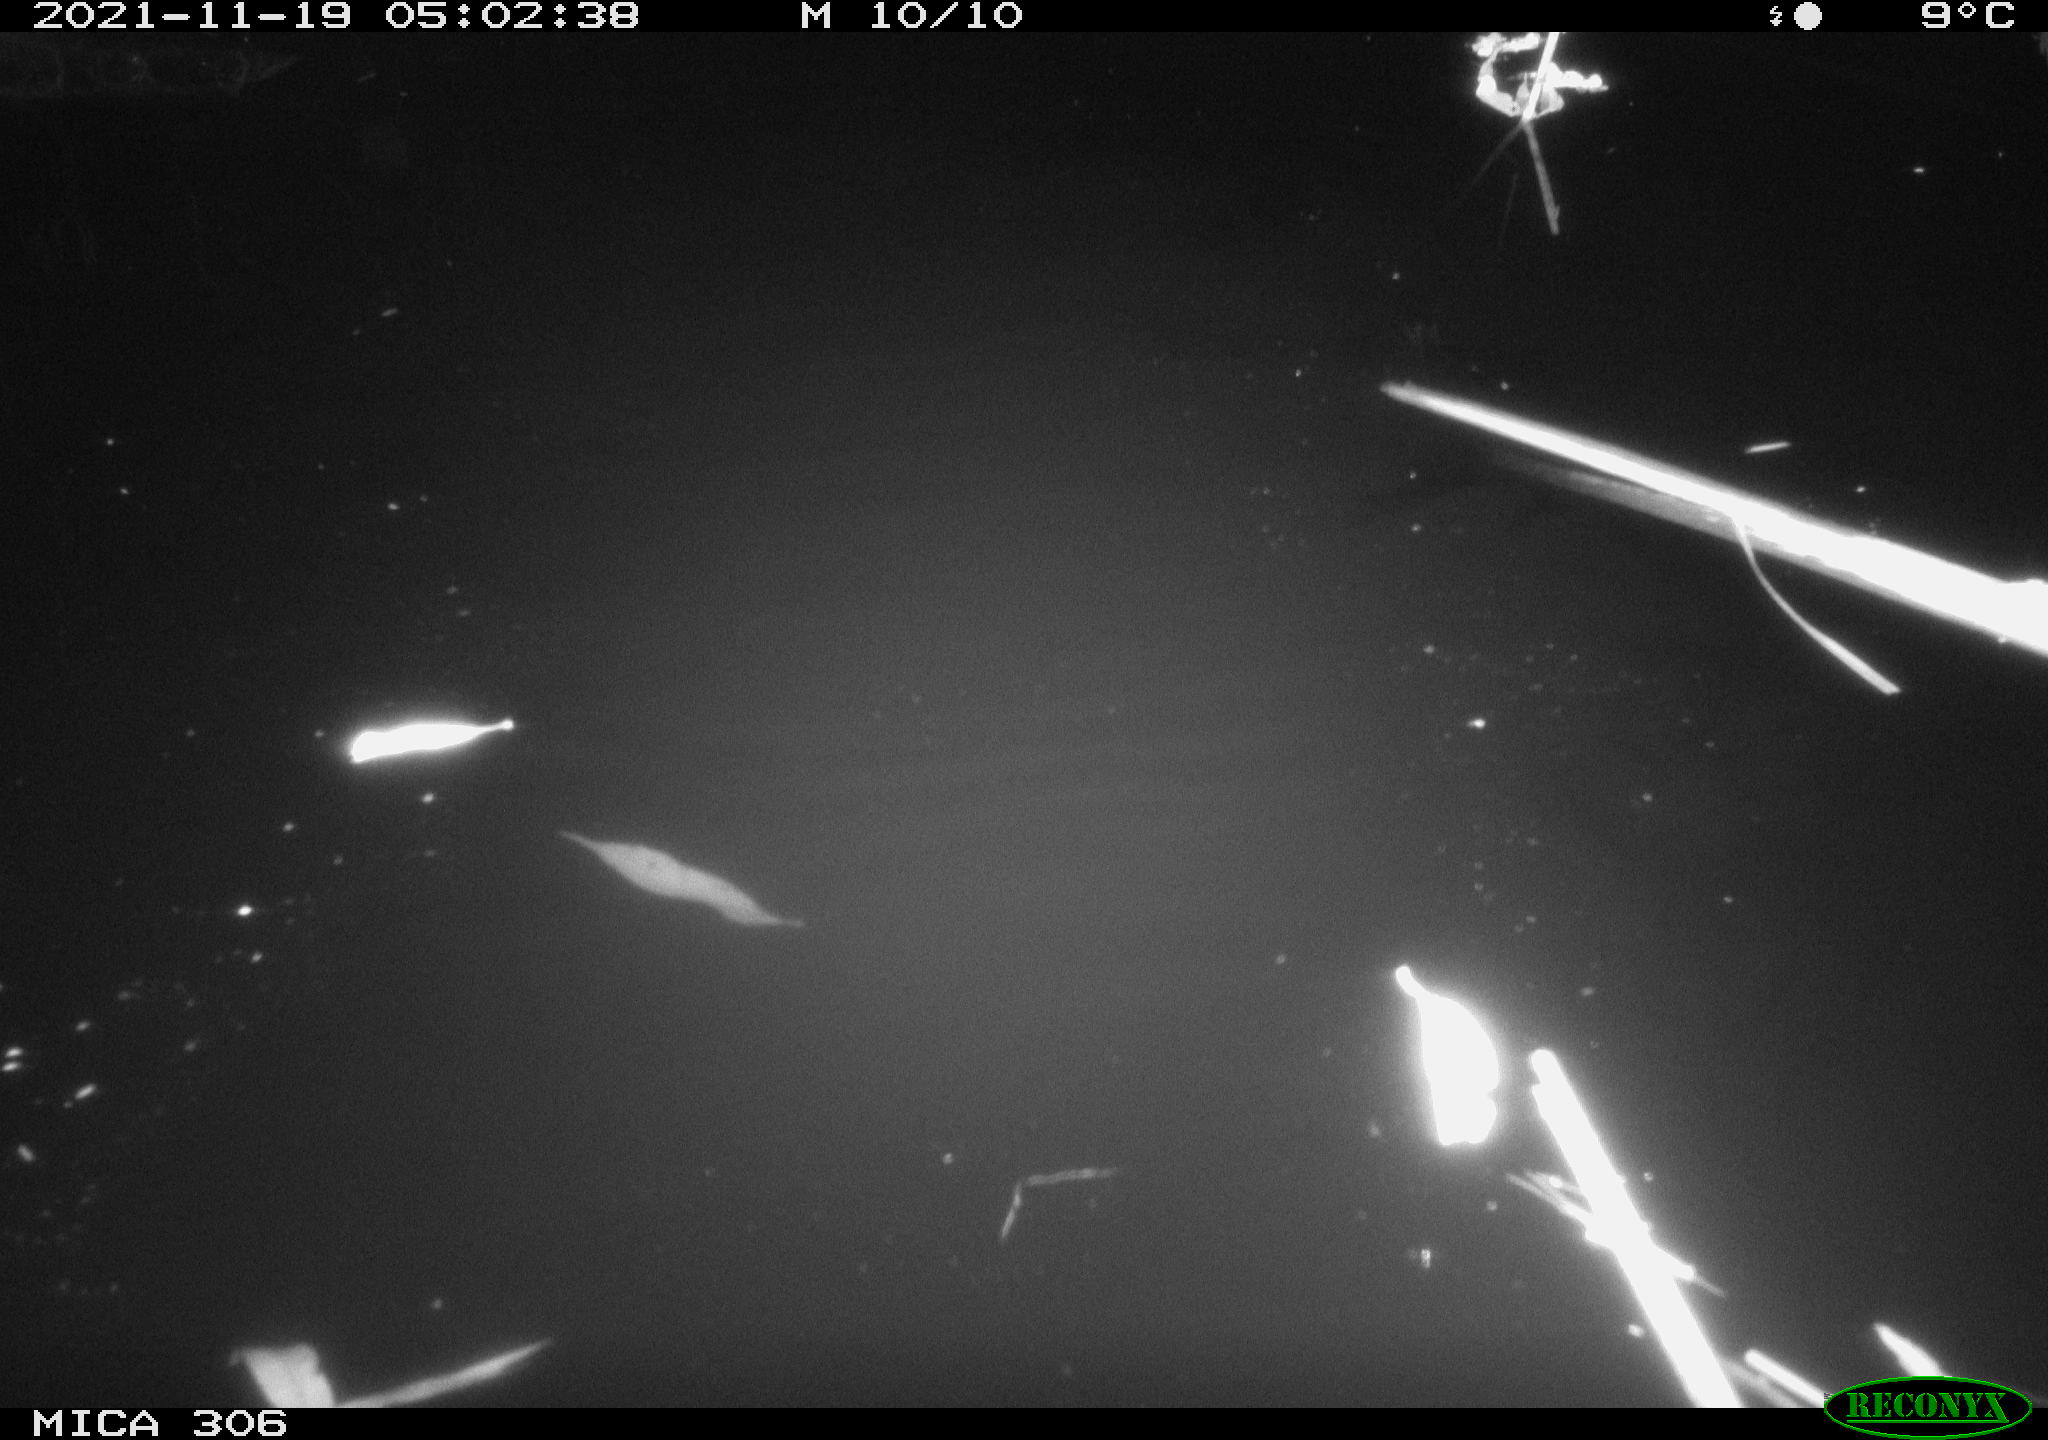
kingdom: Animalia
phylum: Chordata
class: Mammalia
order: Rodentia
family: Cricetidae
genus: Ondatra
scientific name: Ondatra zibethicus
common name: Muskrat
